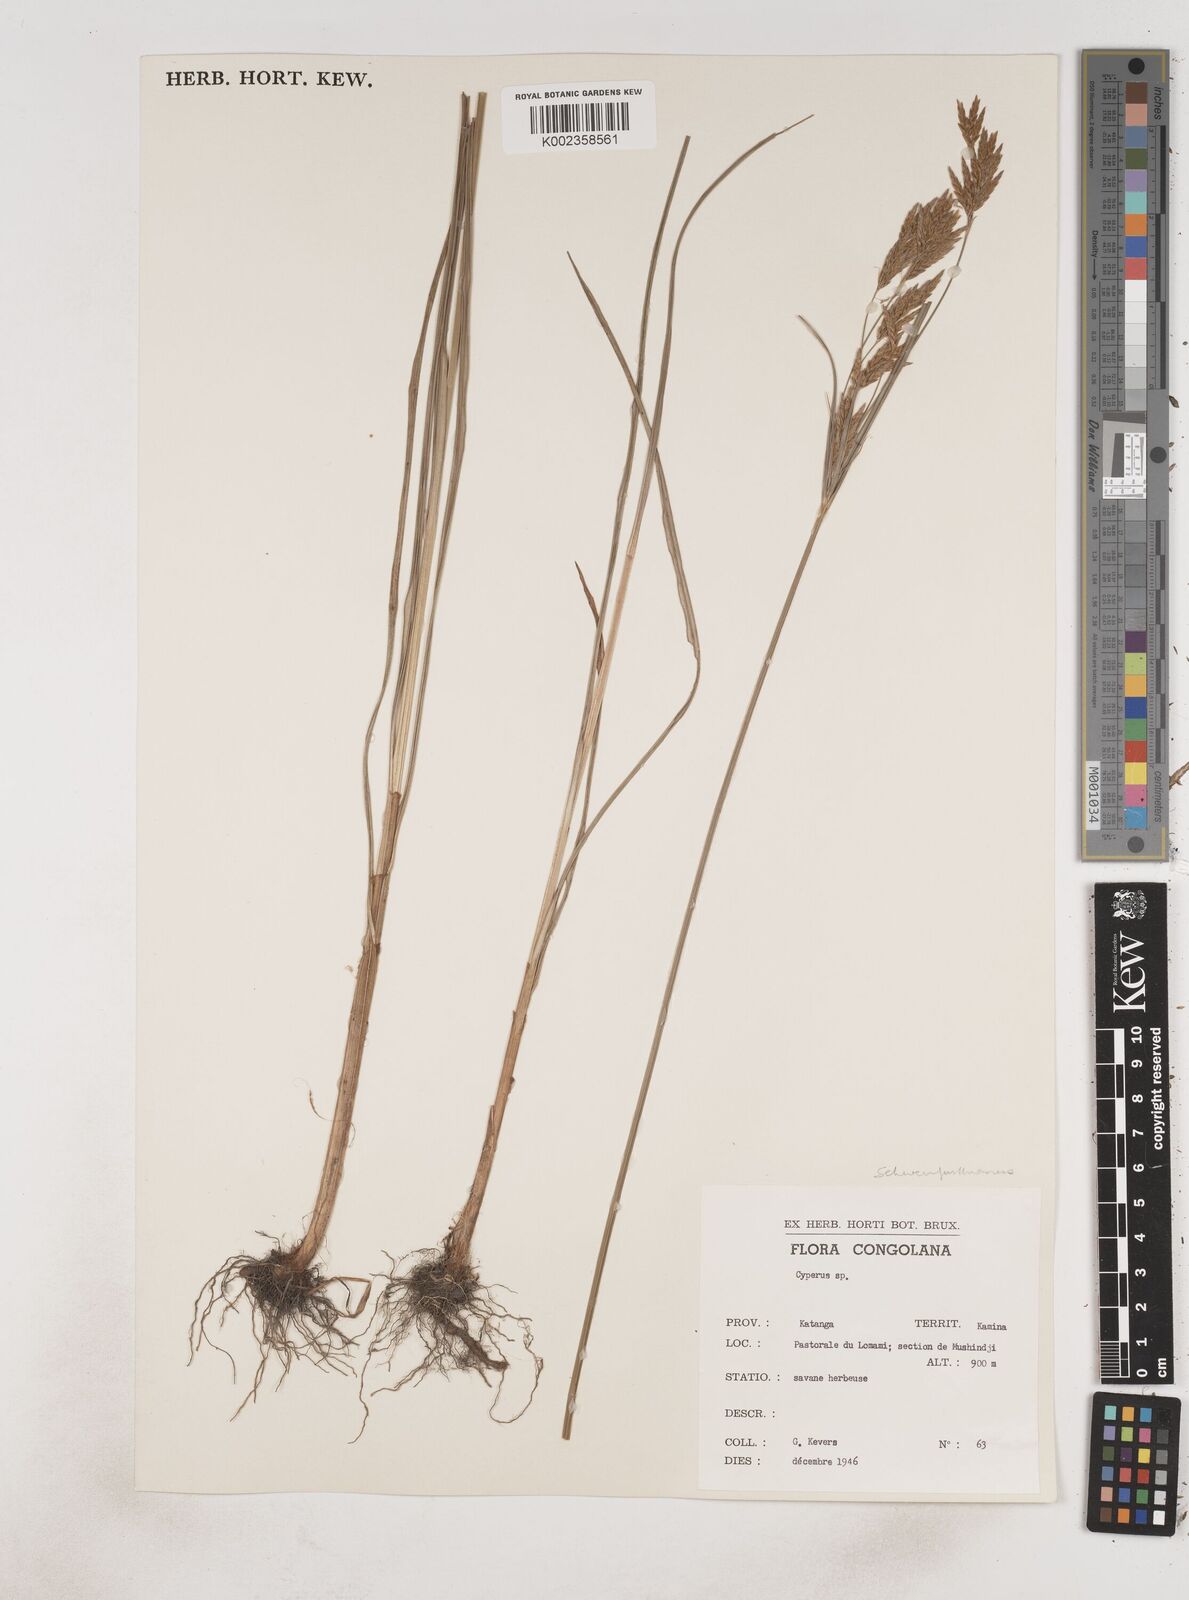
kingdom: Plantae
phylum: Tracheophyta
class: Liliopsida
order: Poales
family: Cyperaceae
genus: Cyperus
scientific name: Cyperus tenuiculmis
